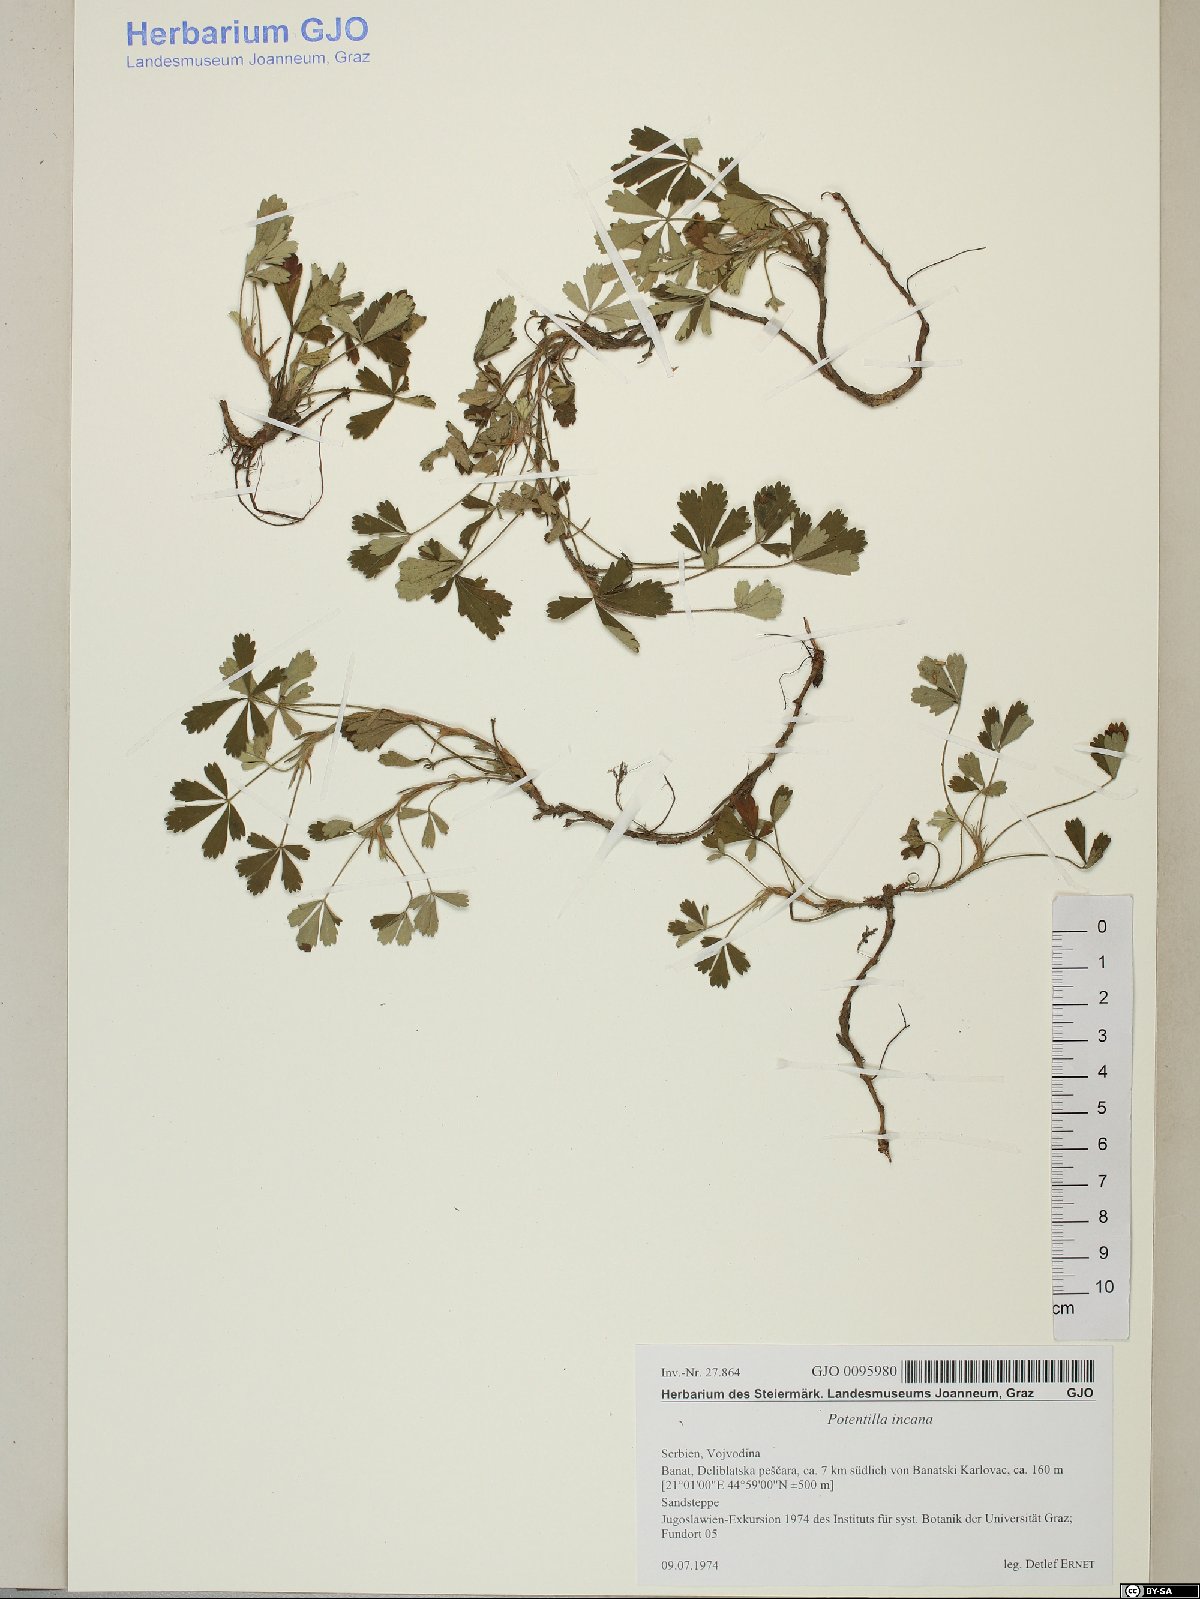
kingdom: Plantae
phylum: Tracheophyta
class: Magnoliopsida
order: Rosales
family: Rosaceae
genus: Potentilla
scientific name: Potentilla cinerea
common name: Ashy cinquefoil
